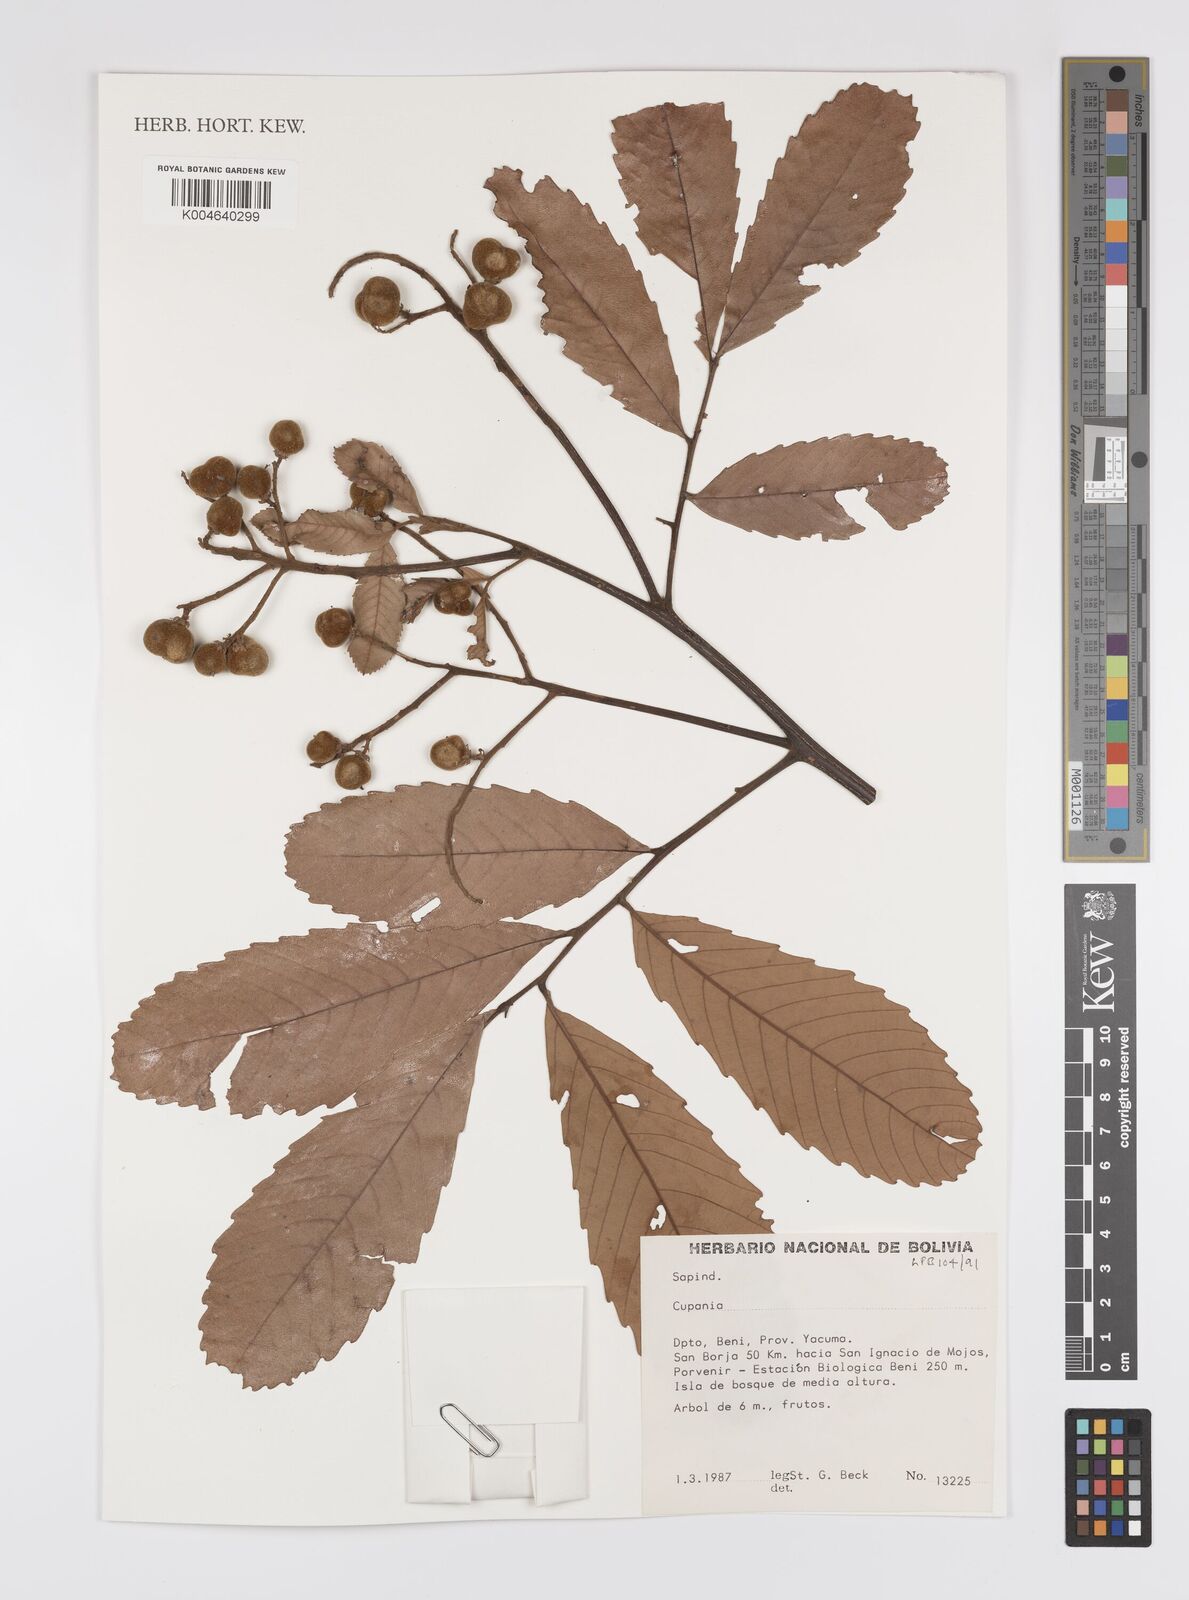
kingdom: Plantae
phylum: Tracheophyta
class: Magnoliopsida
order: Sapindales
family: Sapindaceae
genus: Cupania
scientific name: Cupania
